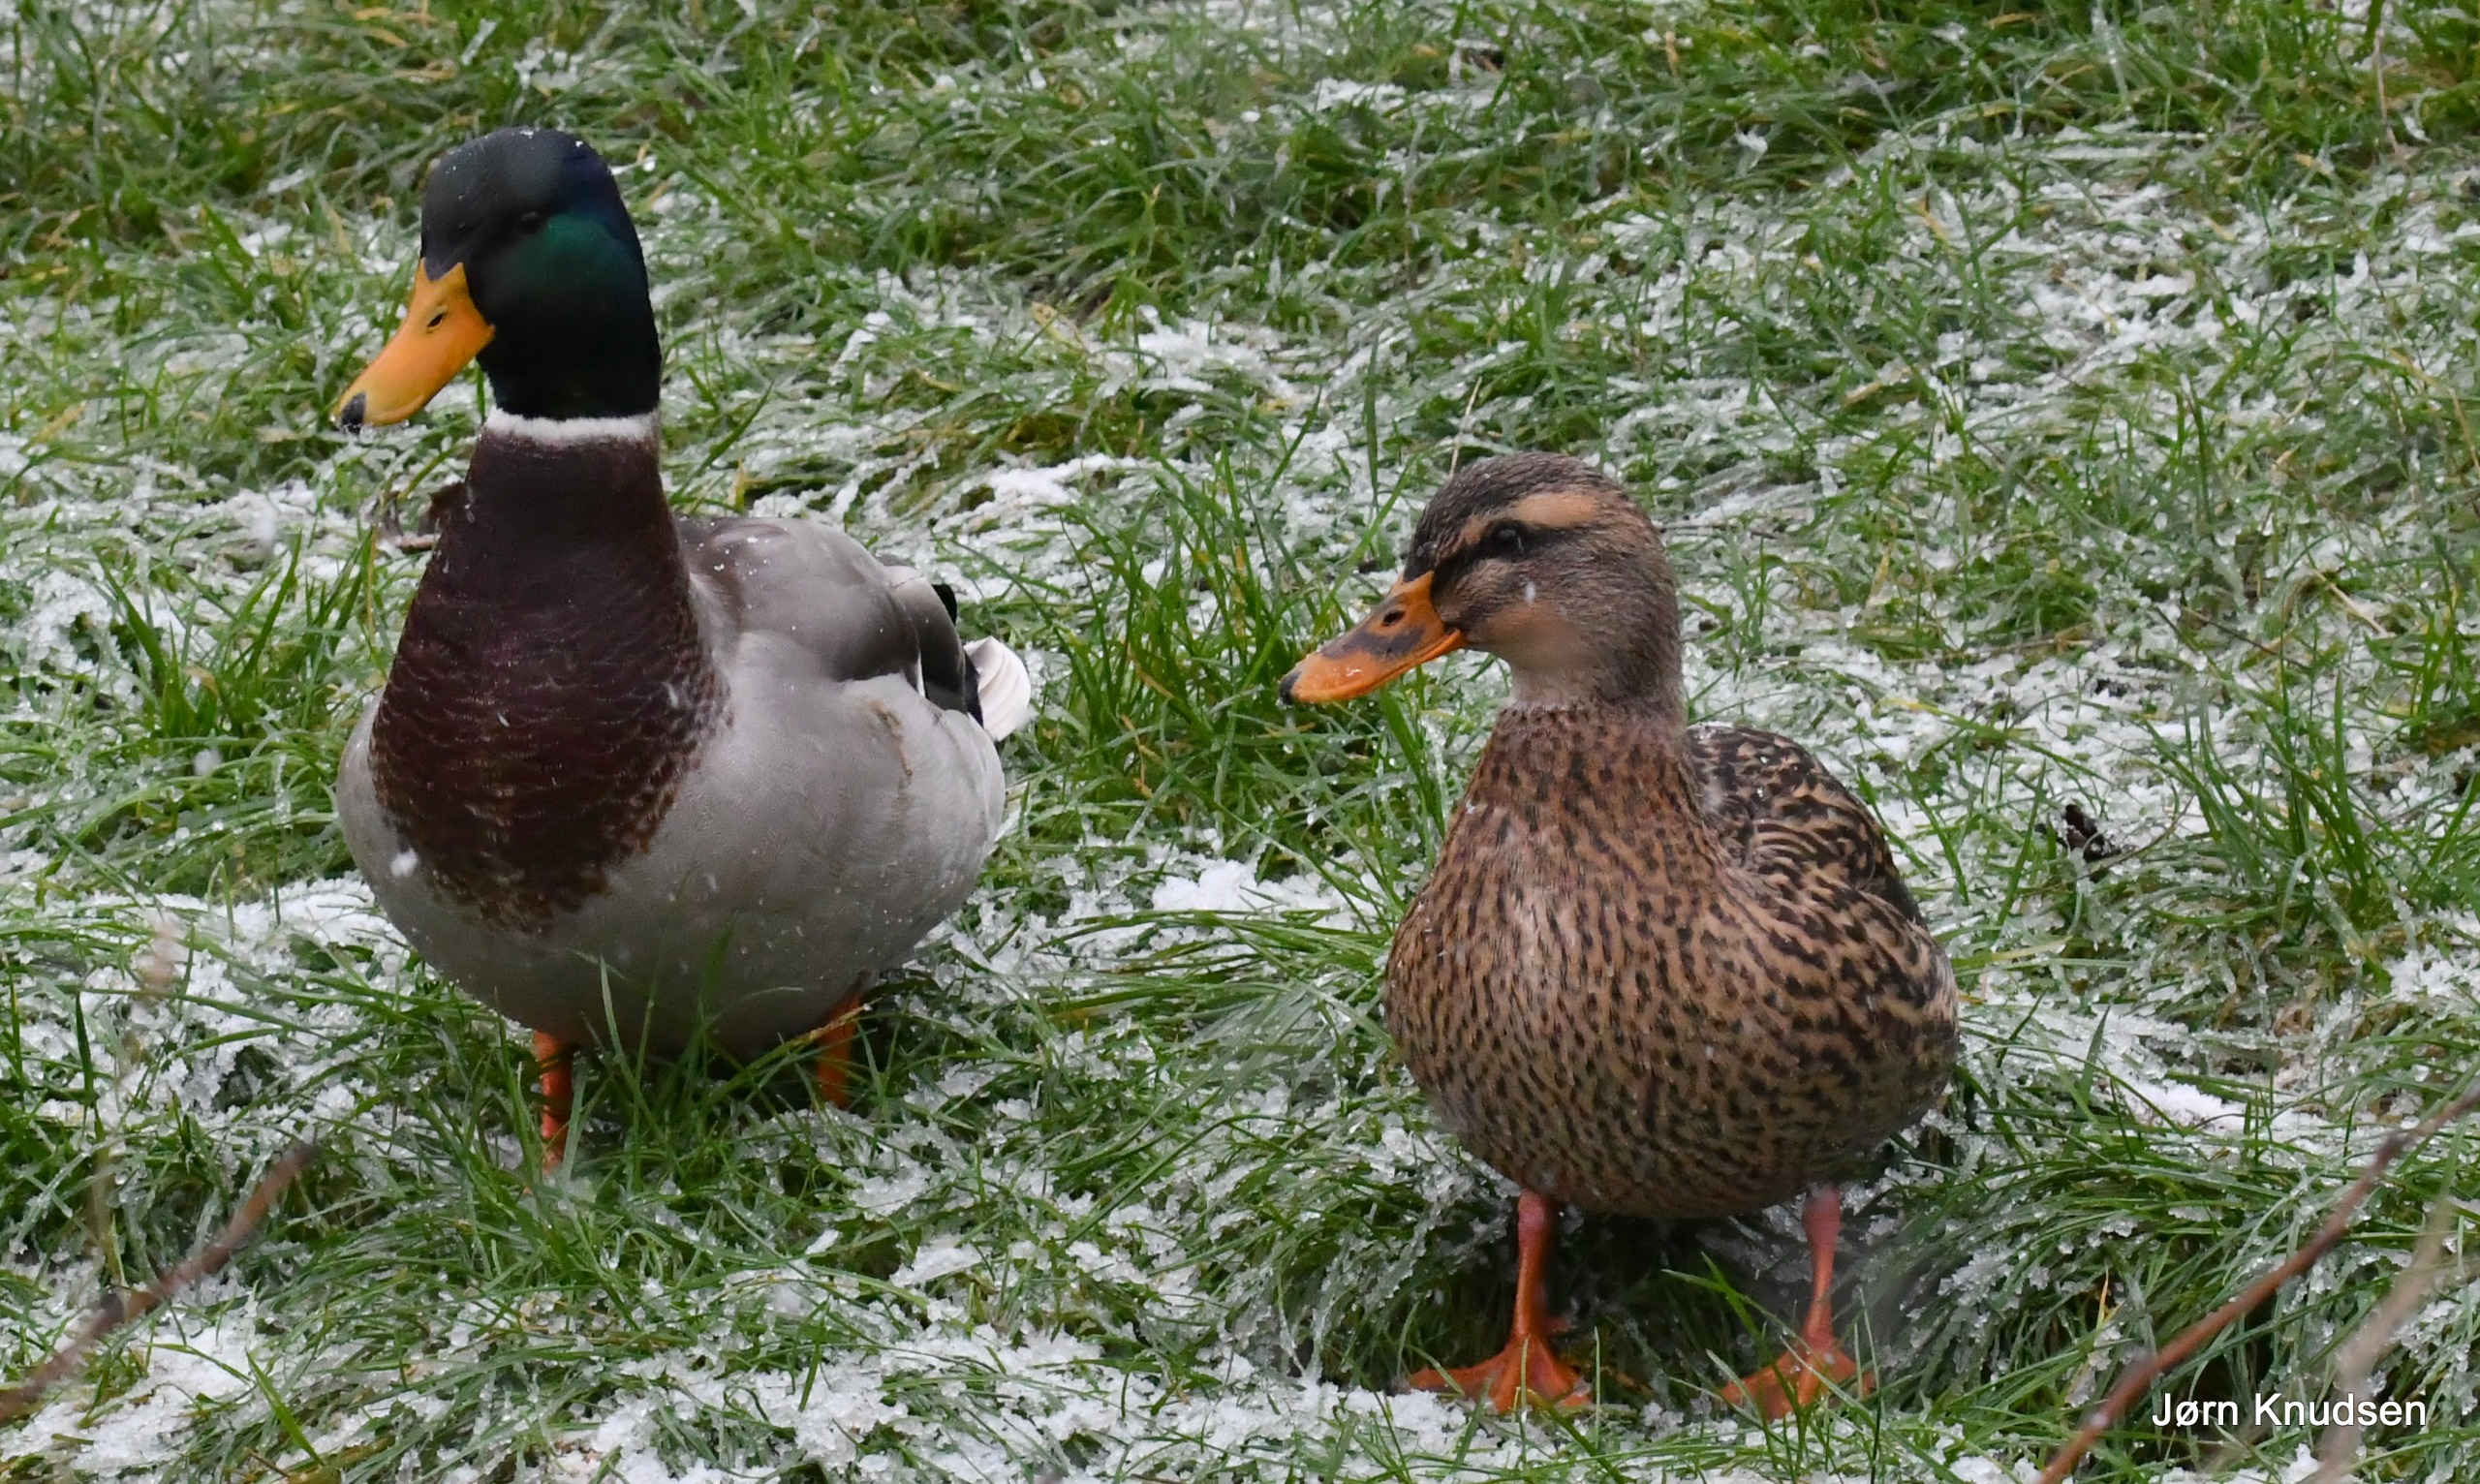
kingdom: Animalia
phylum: Chordata
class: Aves
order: Anseriformes
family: Anatidae
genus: Anas
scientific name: Anas platyrhynchos
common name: Gråand
